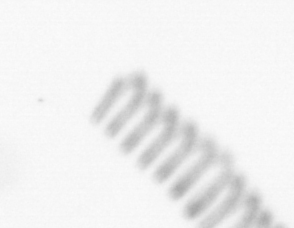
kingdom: Chromista
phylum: Ochrophyta
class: Bacillariophyceae
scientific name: Bacillariophyceae
